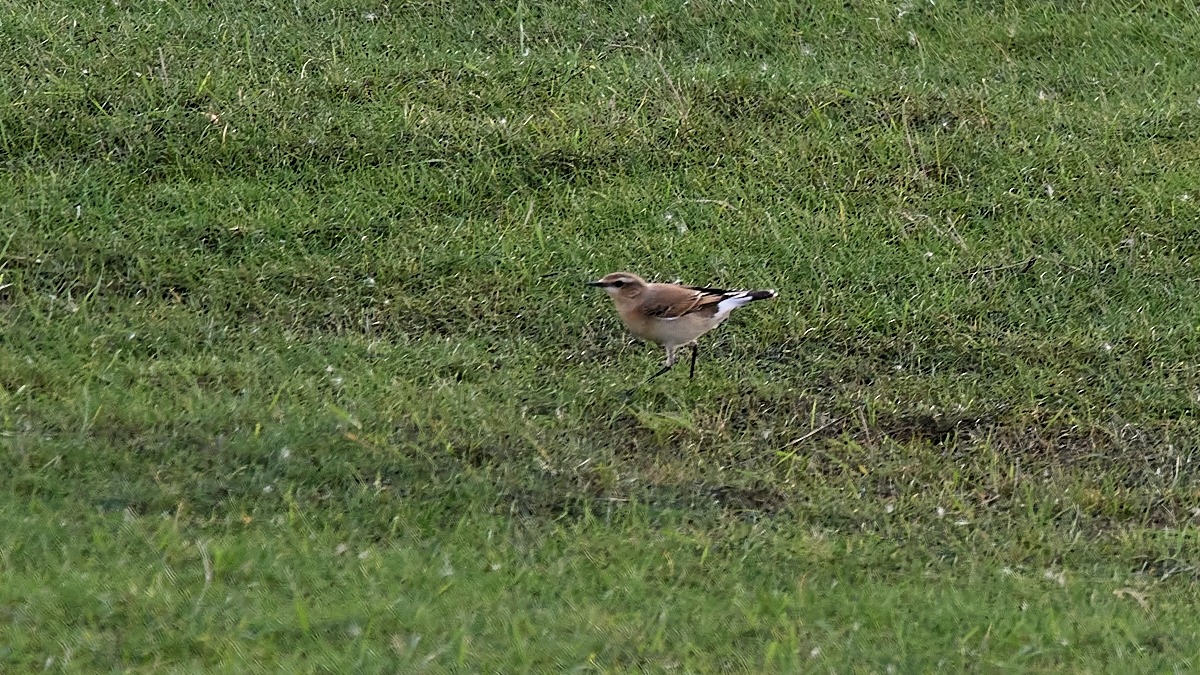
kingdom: Animalia
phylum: Chordata
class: Aves
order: Passeriformes
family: Muscicapidae
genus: Oenanthe
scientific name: Oenanthe oenanthe
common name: Stenpikker
